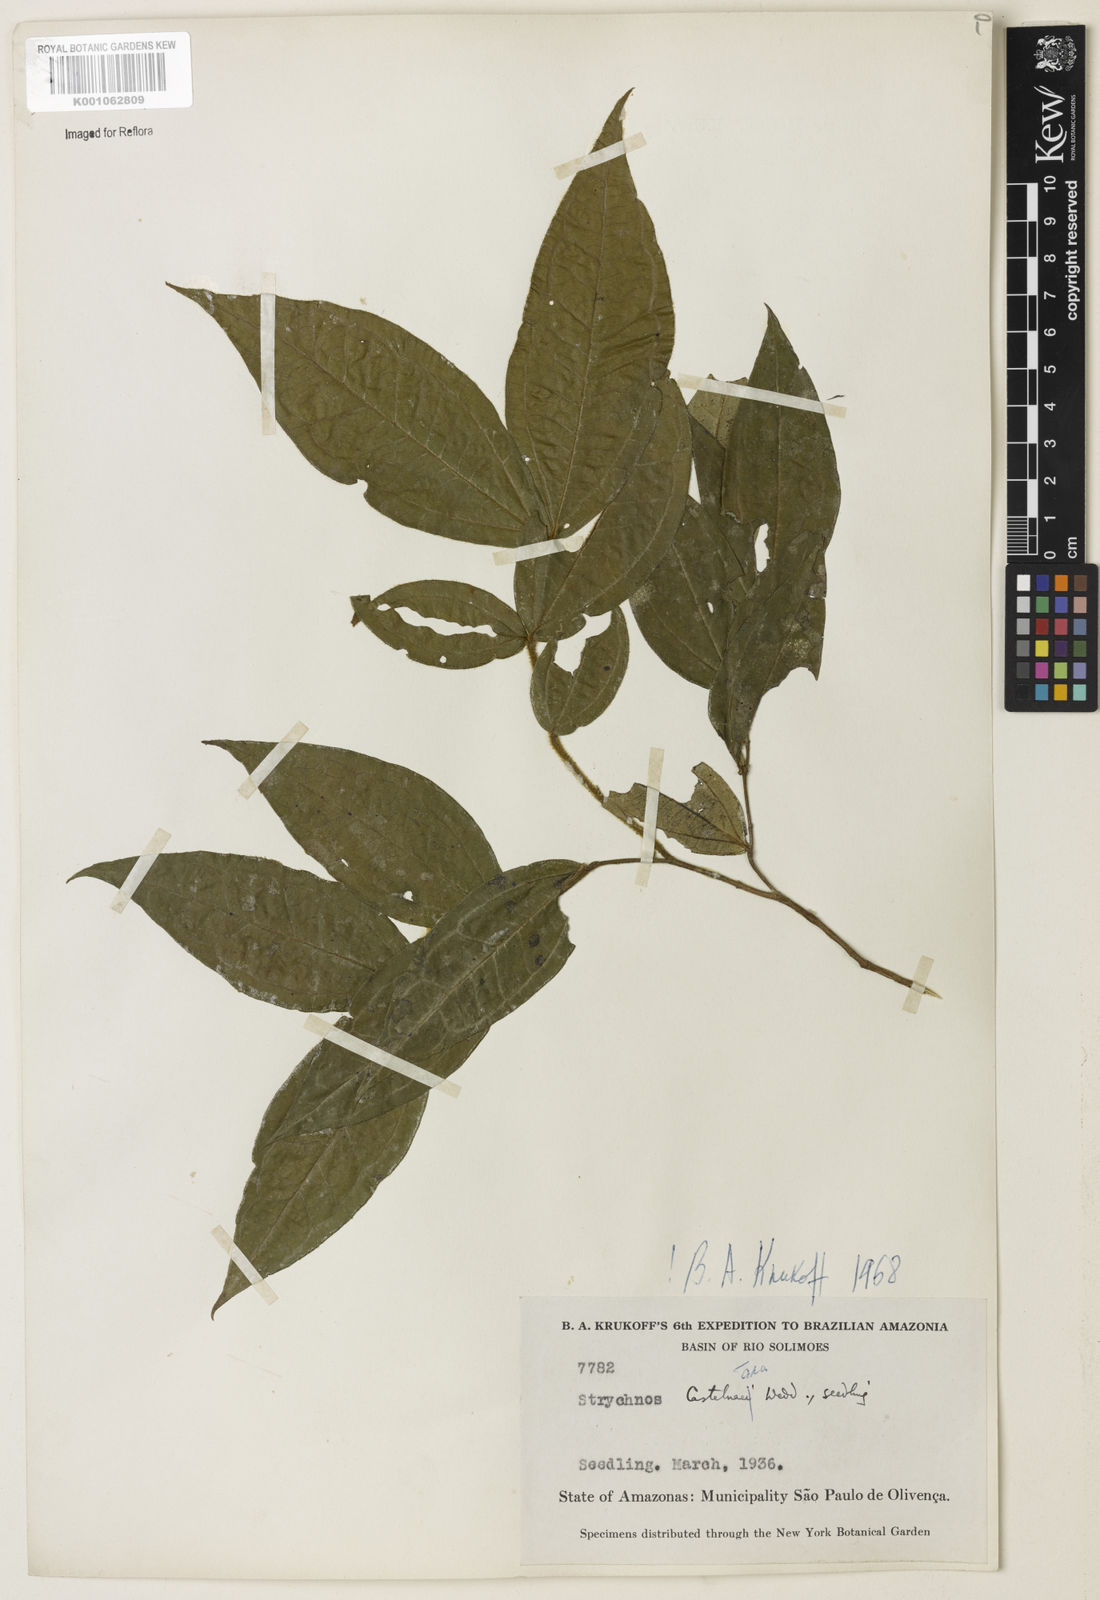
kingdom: Plantae
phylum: Tracheophyta
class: Magnoliopsida
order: Gentianales
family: Loganiaceae
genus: Strychnos
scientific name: Strychnos
